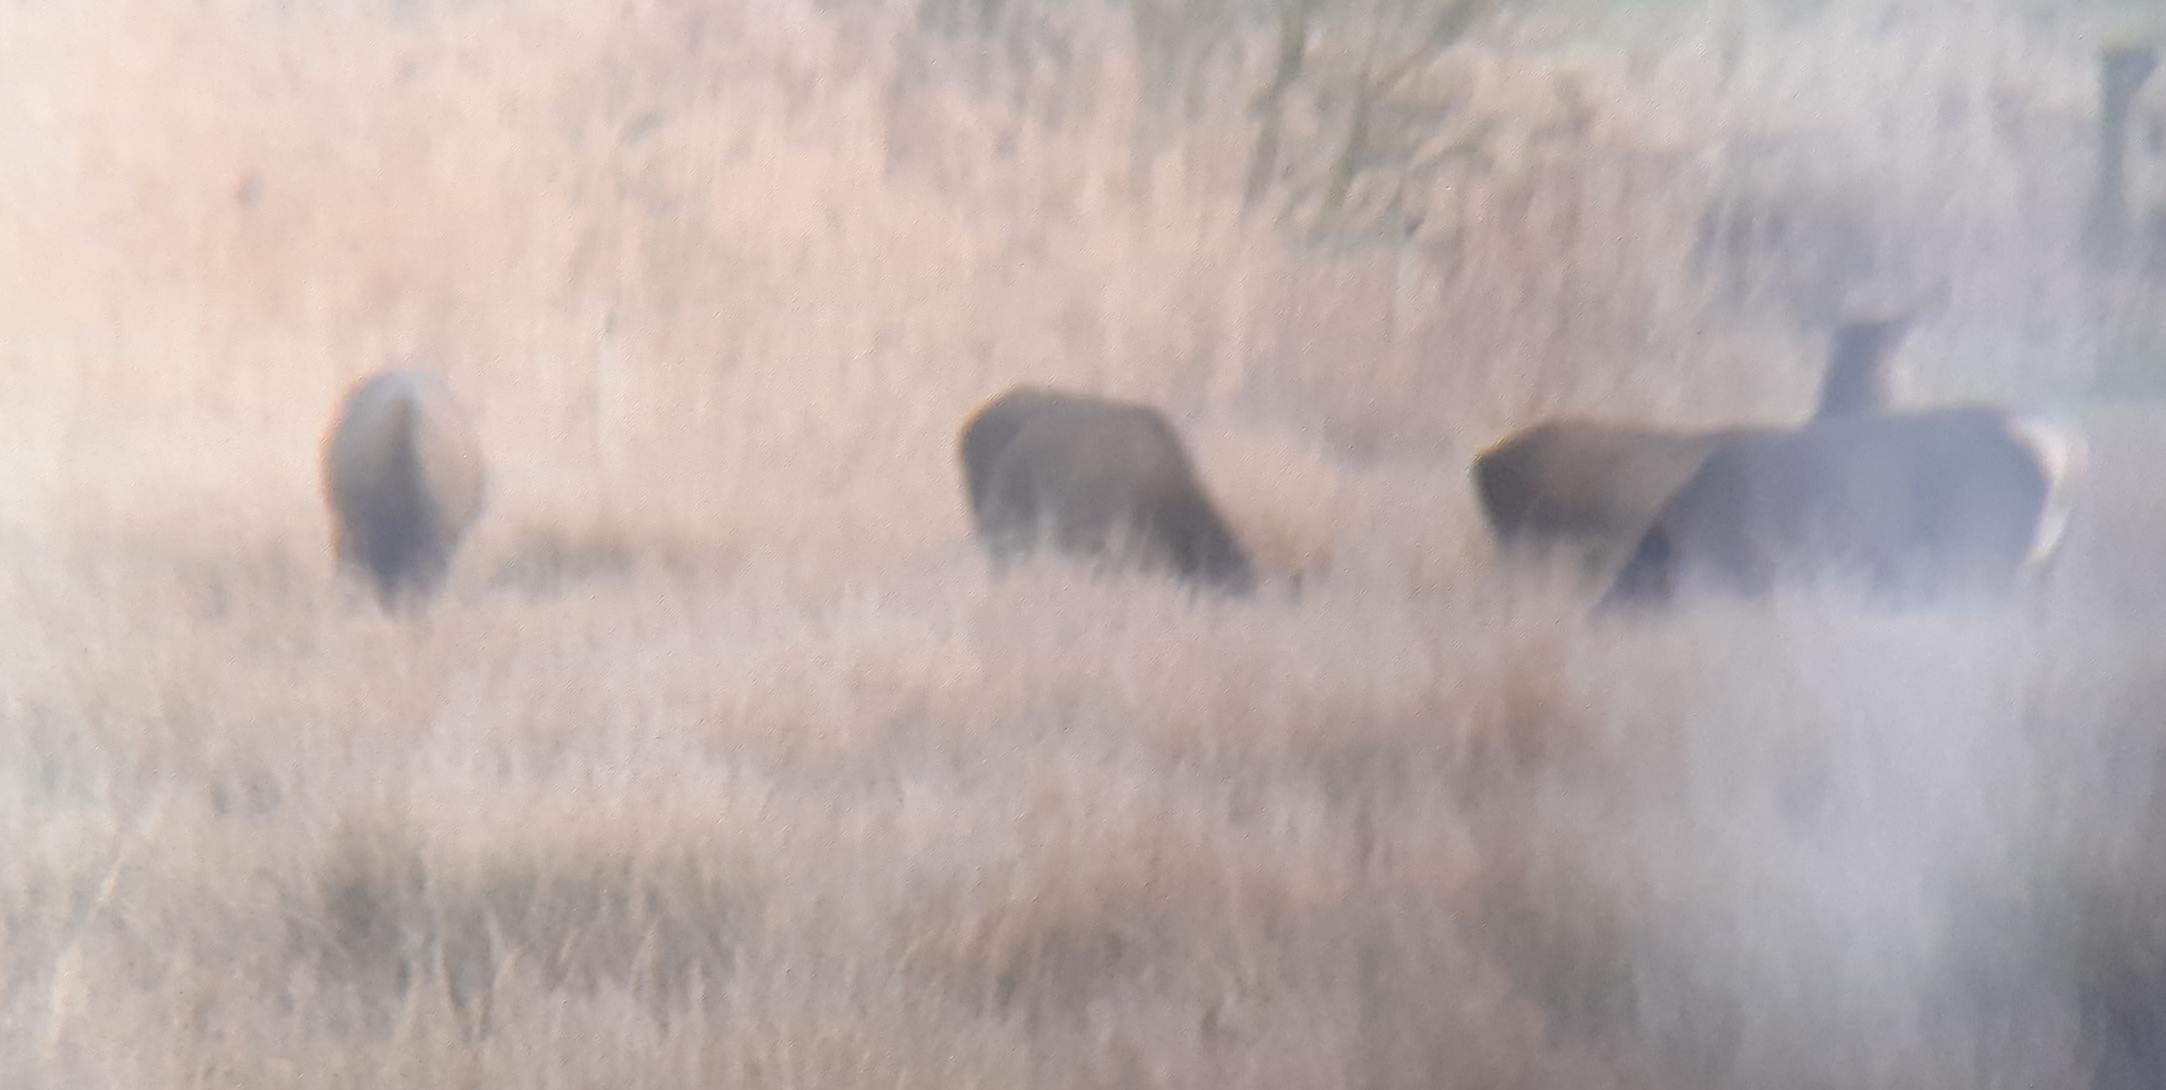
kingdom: Animalia
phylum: Chordata
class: Mammalia
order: Artiodactyla
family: Cervidae
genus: Capreolus
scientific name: Capreolus capreolus
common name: Rådyr
